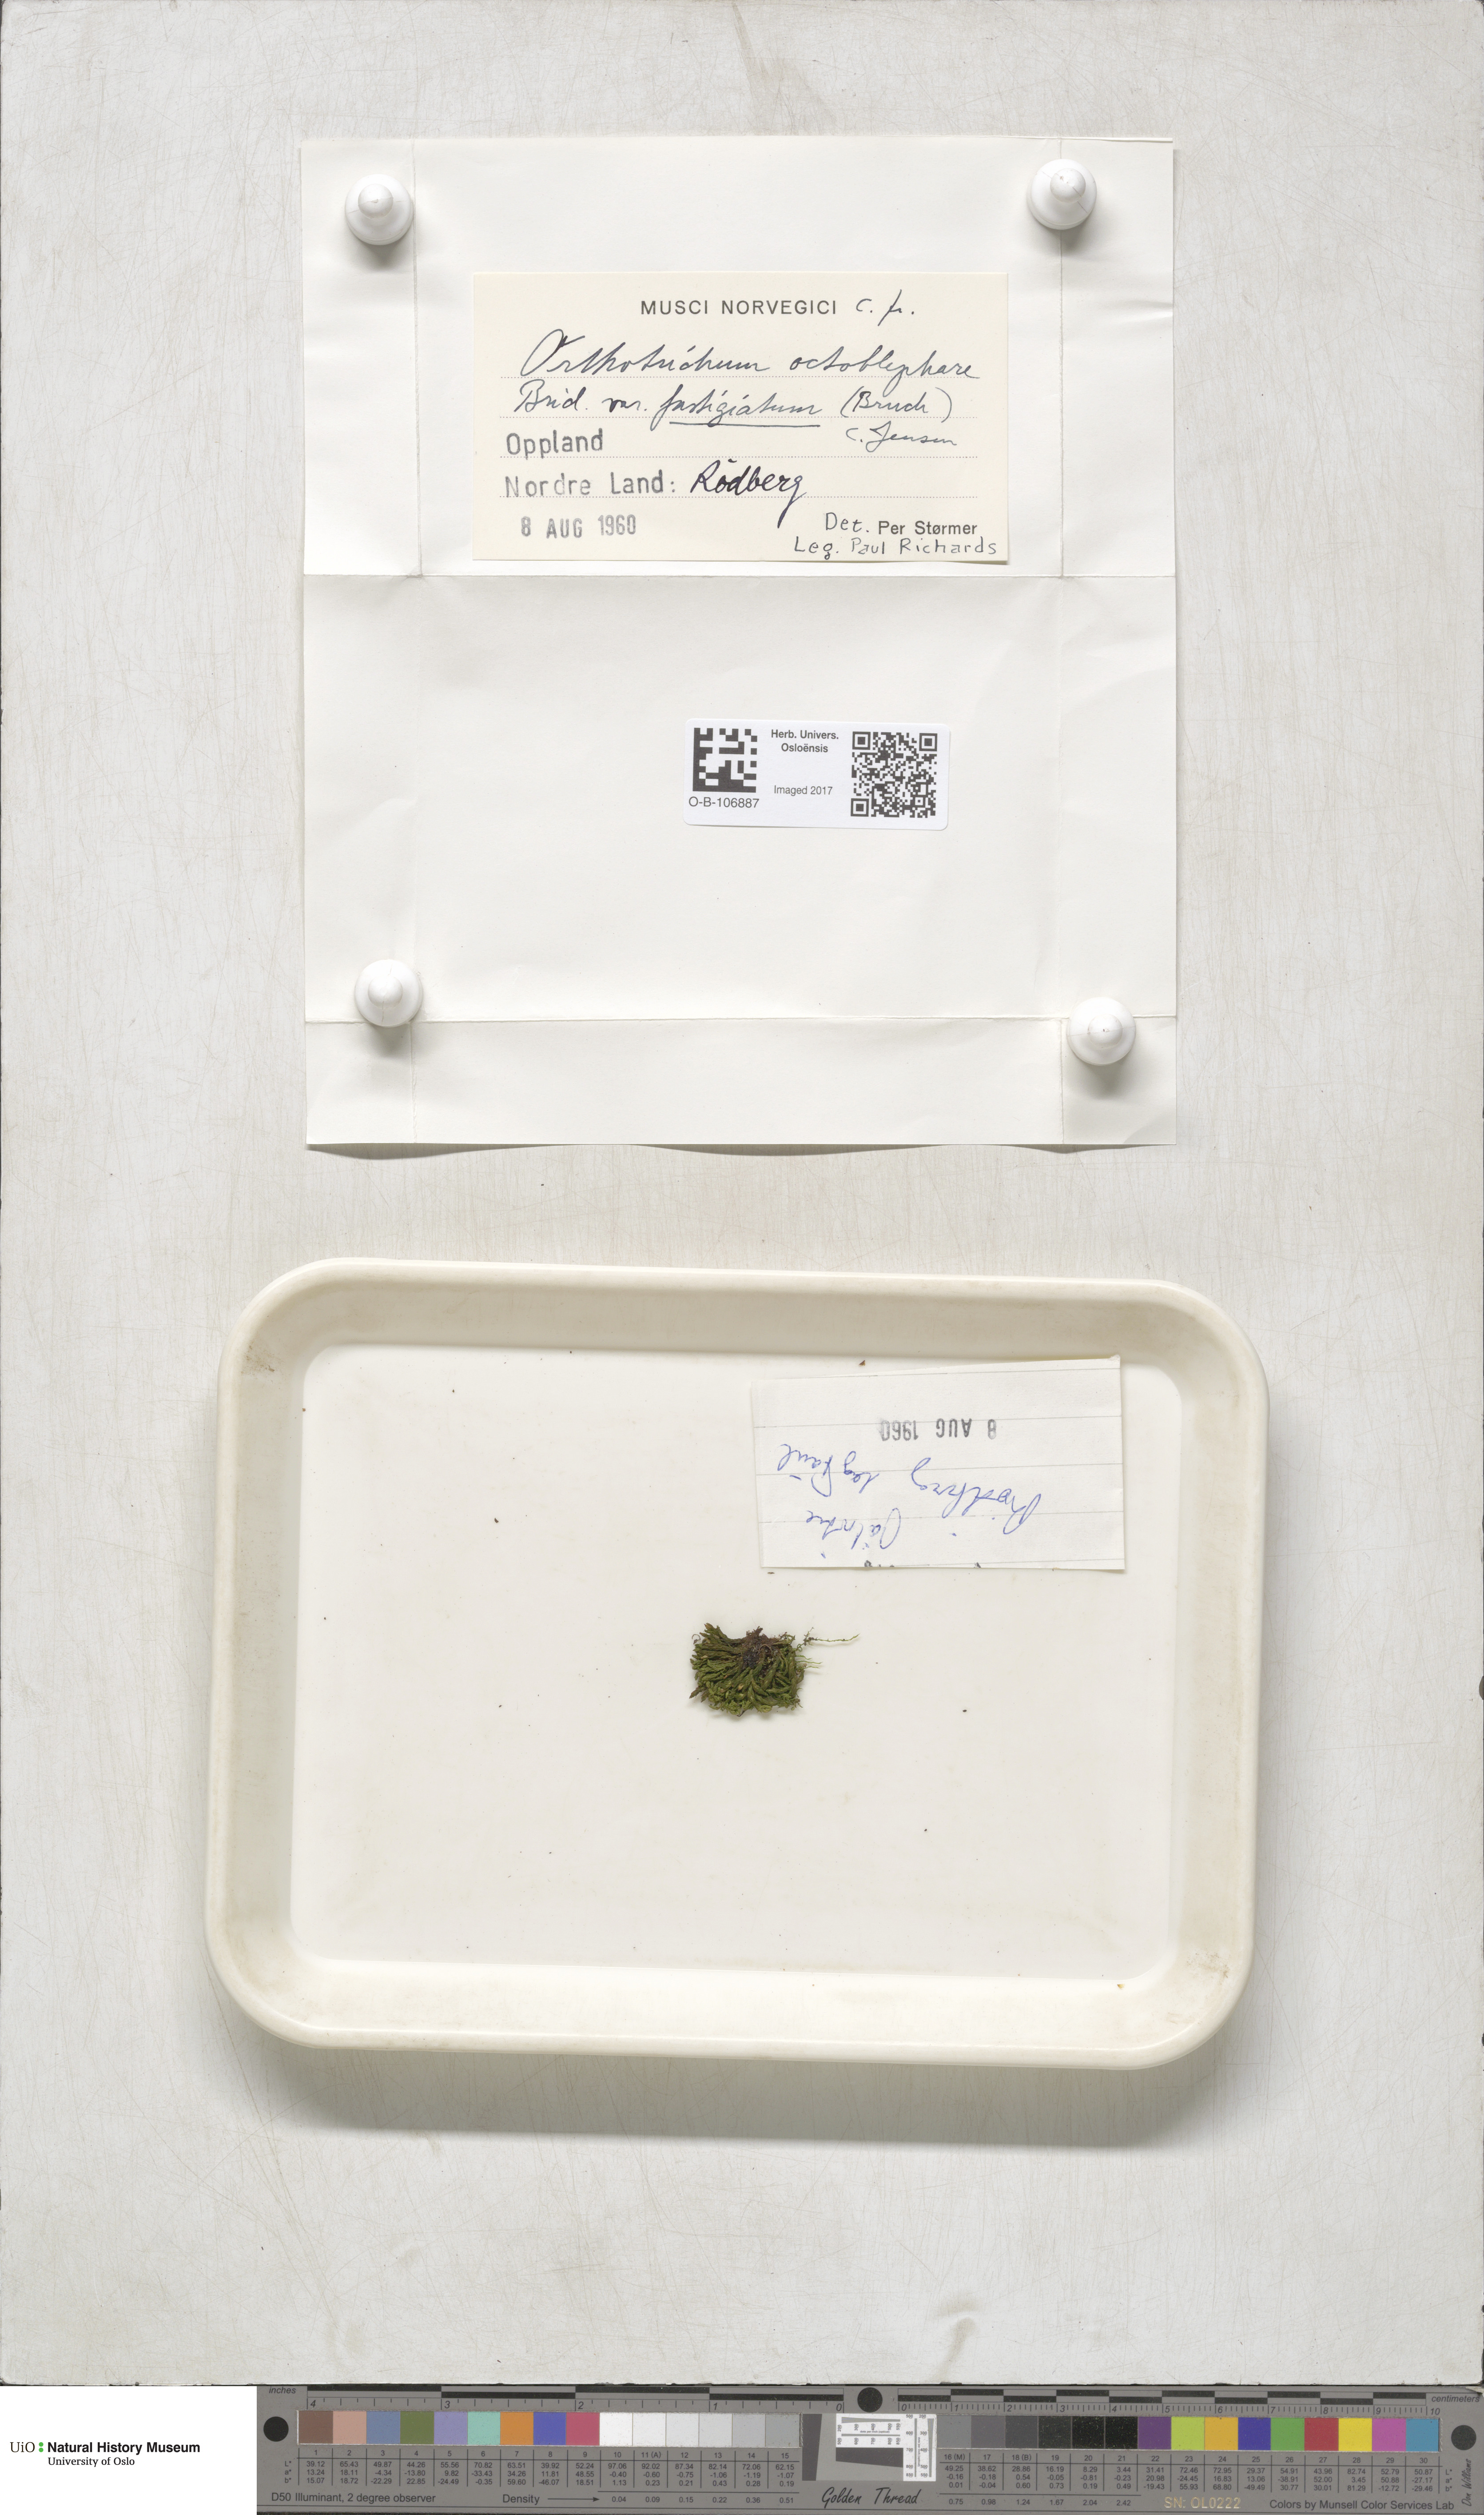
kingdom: Plantae
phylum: Bryophyta
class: Bryopsida
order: Orthotrichales
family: Orthotrichaceae
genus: Lewinskya
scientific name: Lewinskya affinis
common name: Wood bristle-moss
